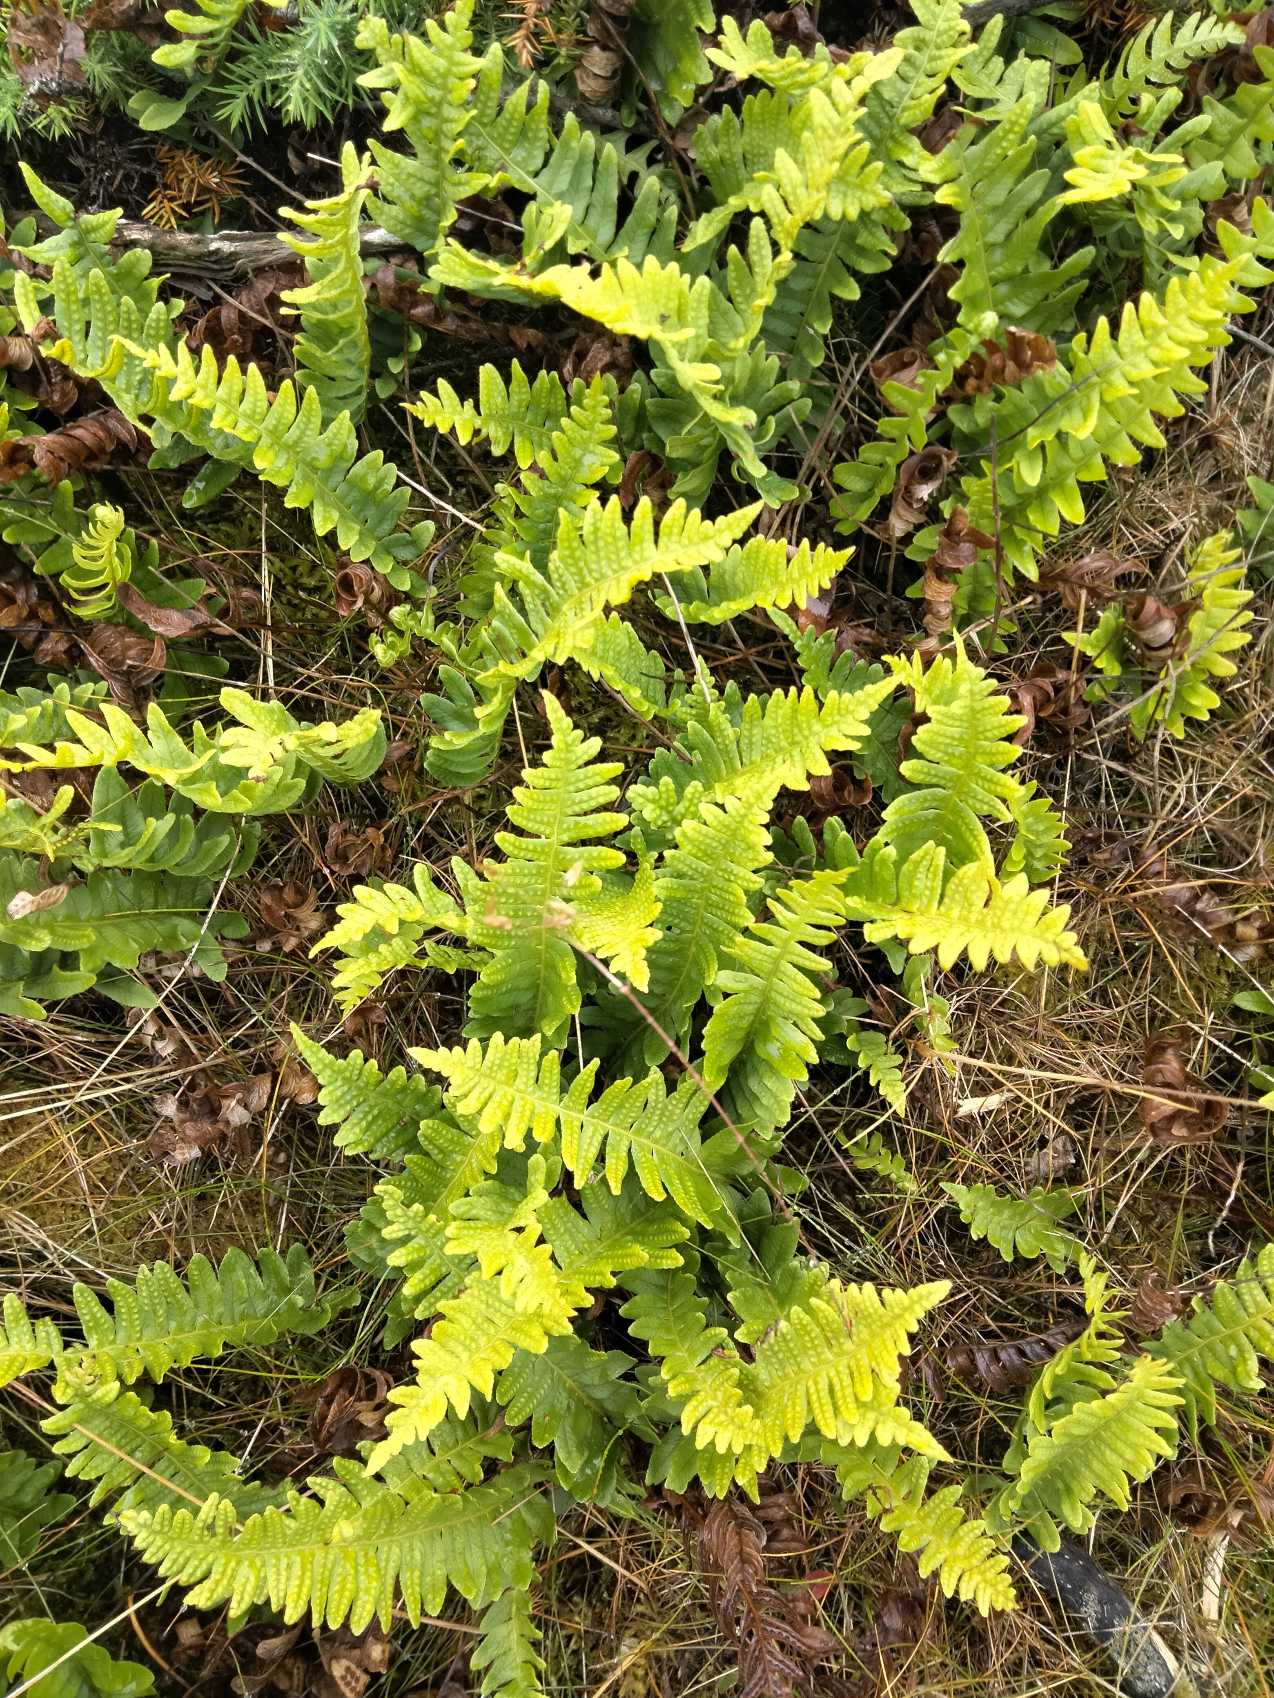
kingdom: Plantae
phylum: Tracheophyta
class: Polypodiopsida
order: Polypodiales
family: Polypodiaceae
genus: Polypodium
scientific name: Polypodium vulgare
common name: Almindelig engelsød
